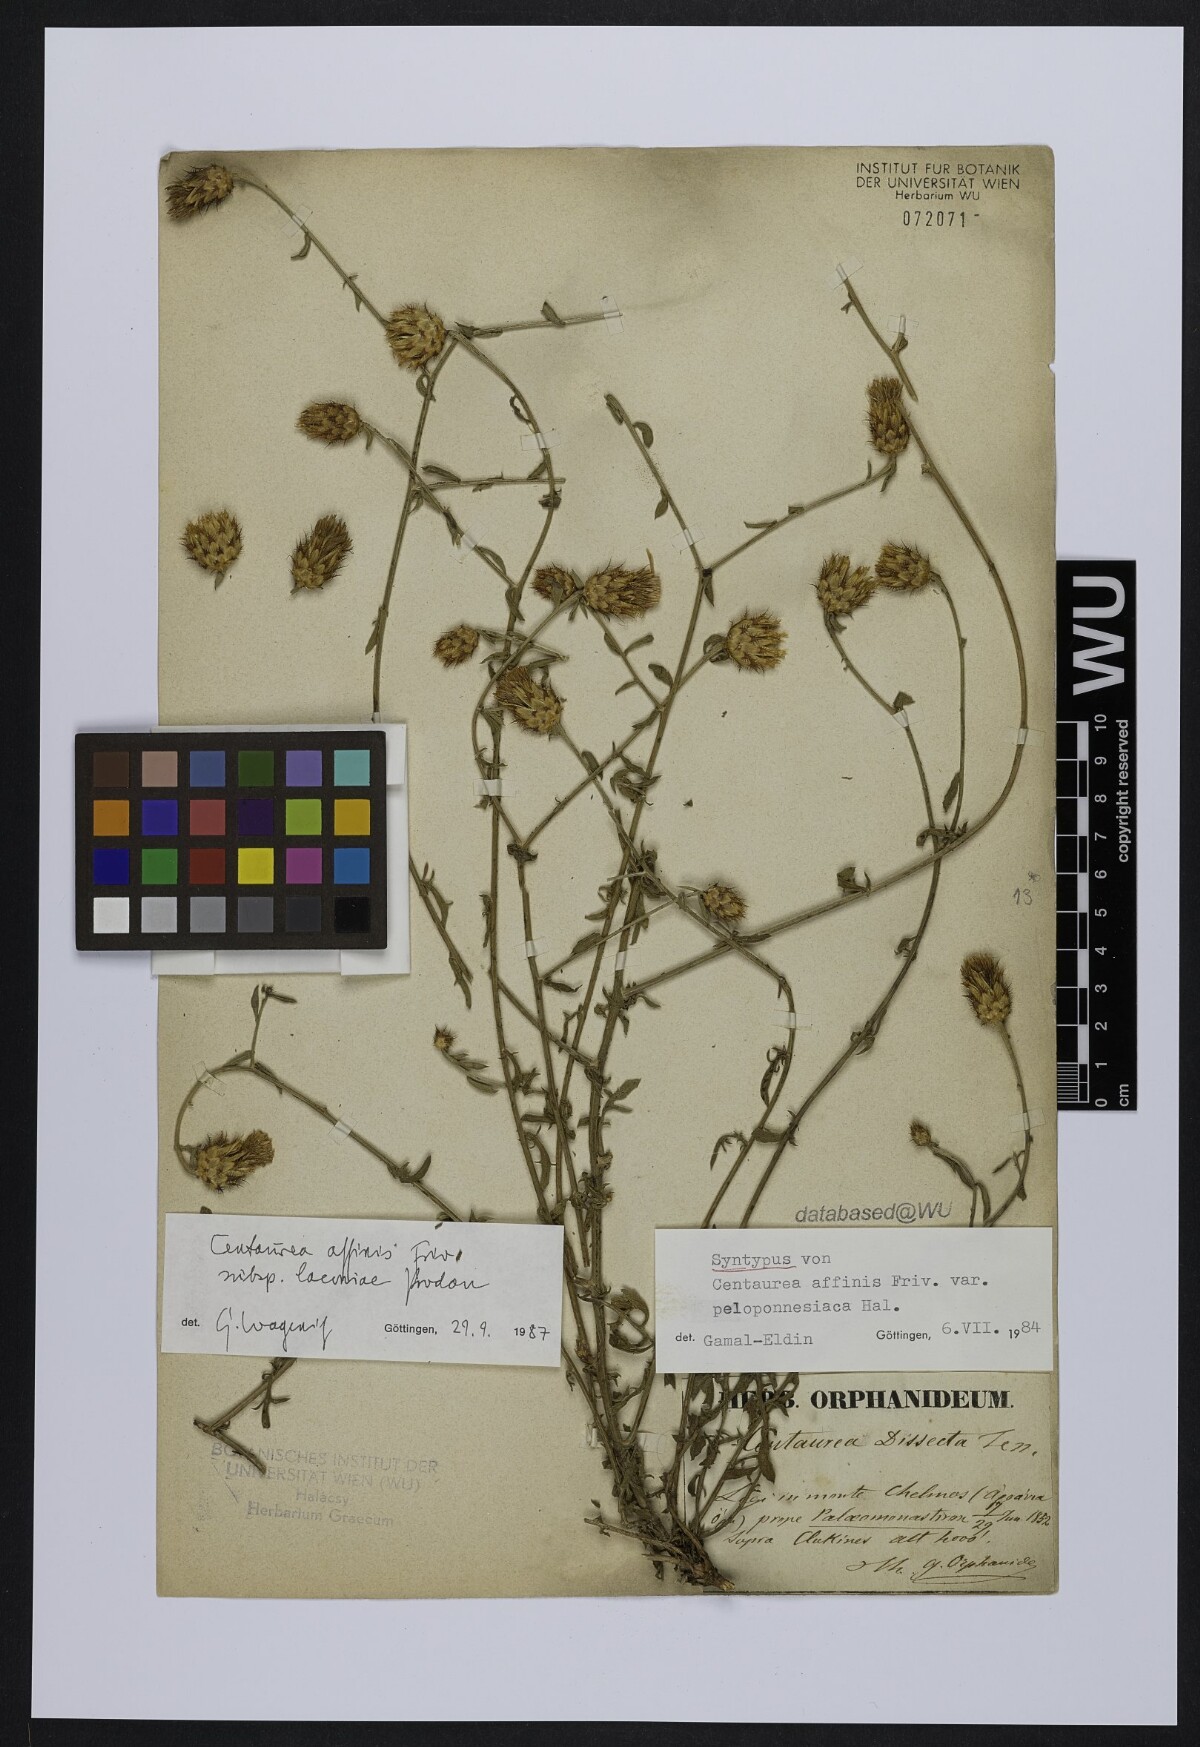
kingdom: Plantae
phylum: Tracheophyta
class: Magnoliopsida
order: Asterales
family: Asteraceae
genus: Centaurea
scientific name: Centaurea affinis
